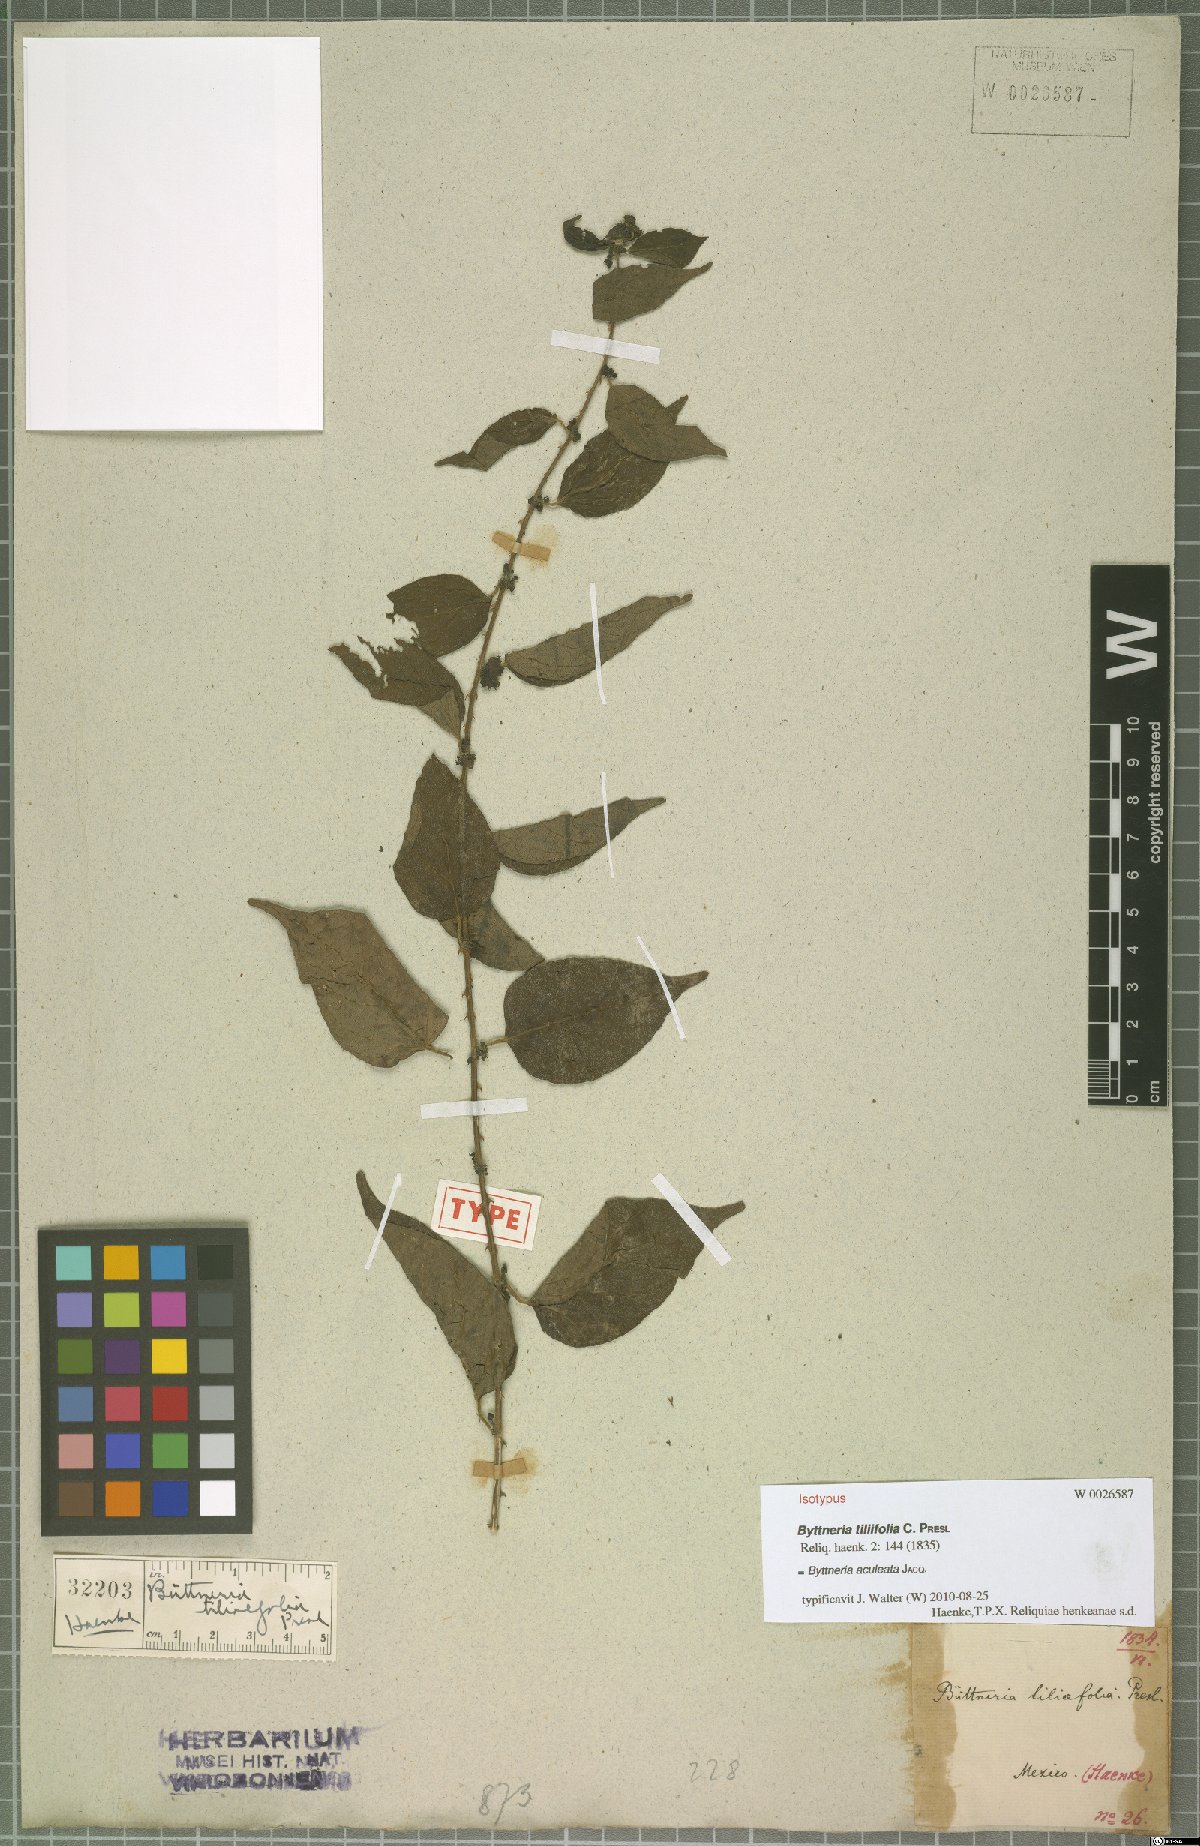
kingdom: Plantae
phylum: Tracheophyta
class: Magnoliopsida
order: Malvales
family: Malvaceae
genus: Byttneria
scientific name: Byttneria aculeata
